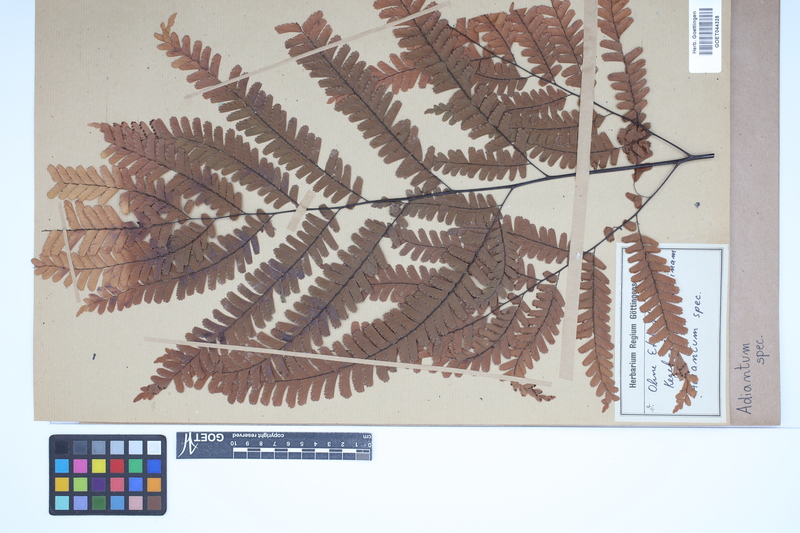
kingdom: Plantae
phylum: Tracheophyta
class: Polypodiopsida
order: Polypodiales
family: Pteridaceae
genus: Adiantum
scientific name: Adiantum
